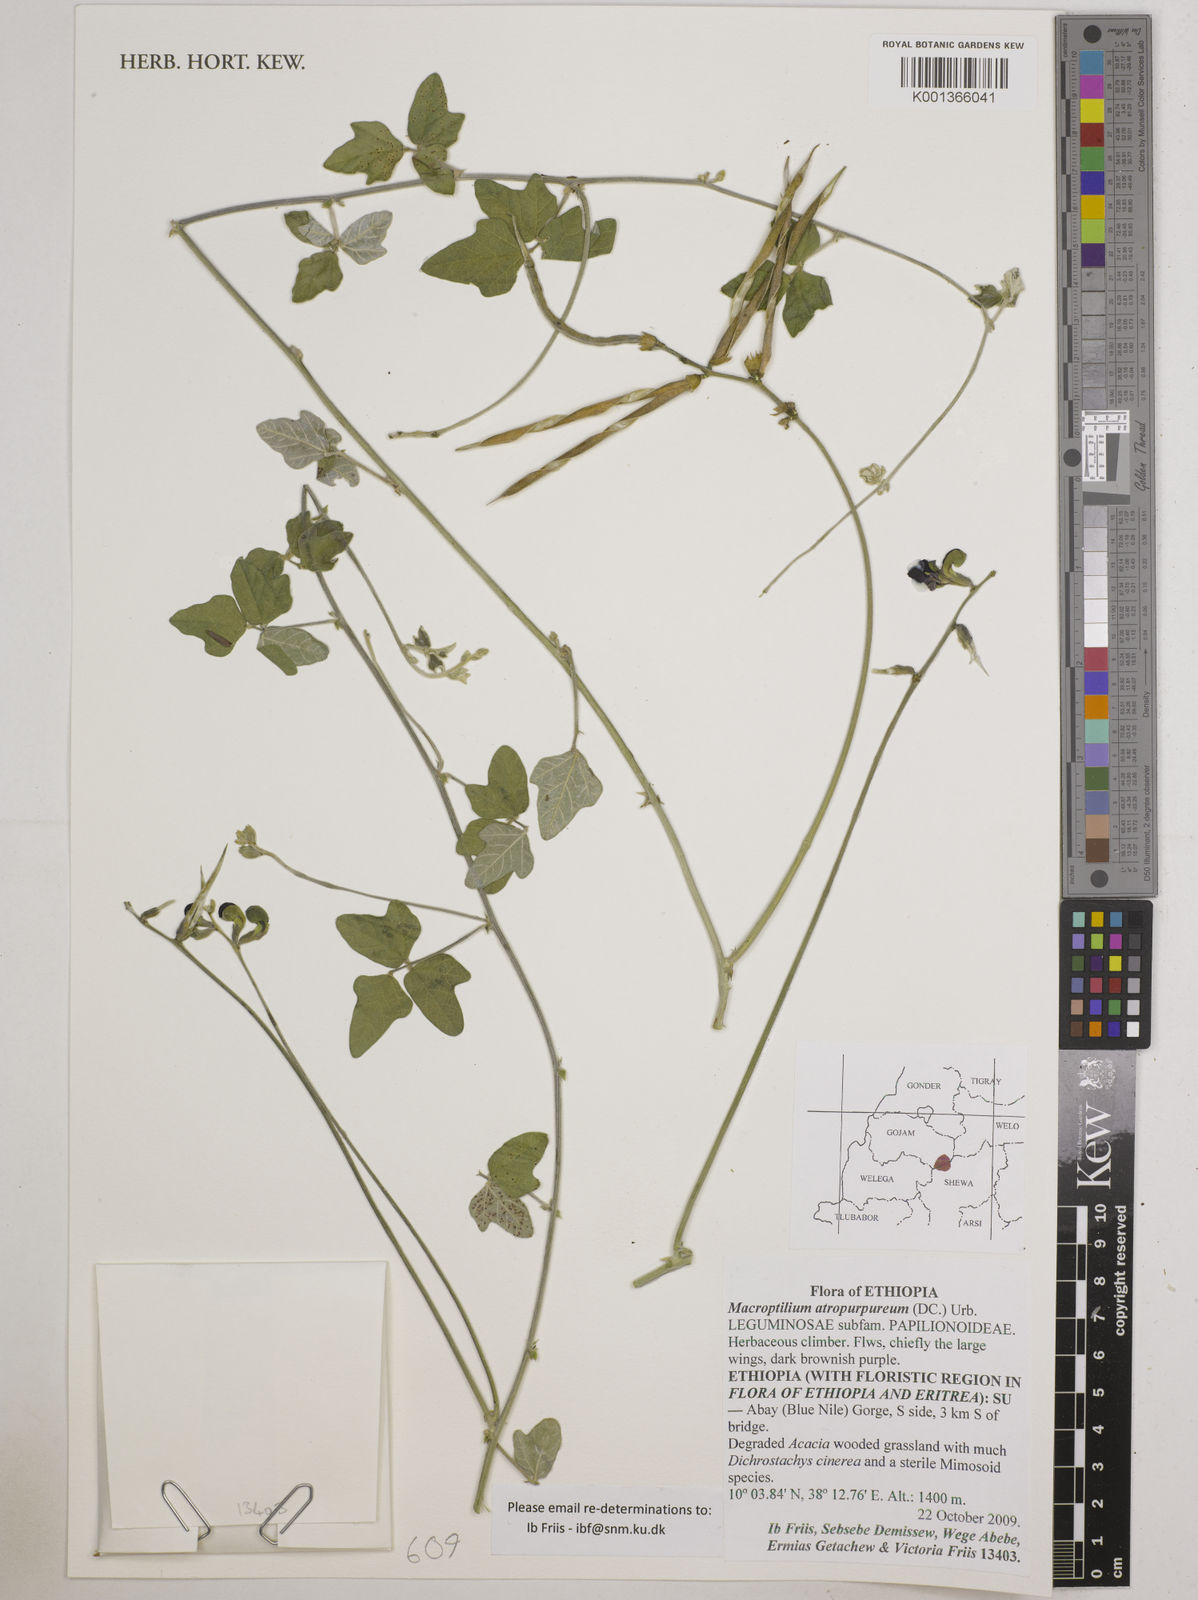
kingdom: Plantae
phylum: Tracheophyta
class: Magnoliopsida
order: Fabales
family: Fabaceae
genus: Macroptilium
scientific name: Macroptilium atropurpureum
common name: Purple bushbean
